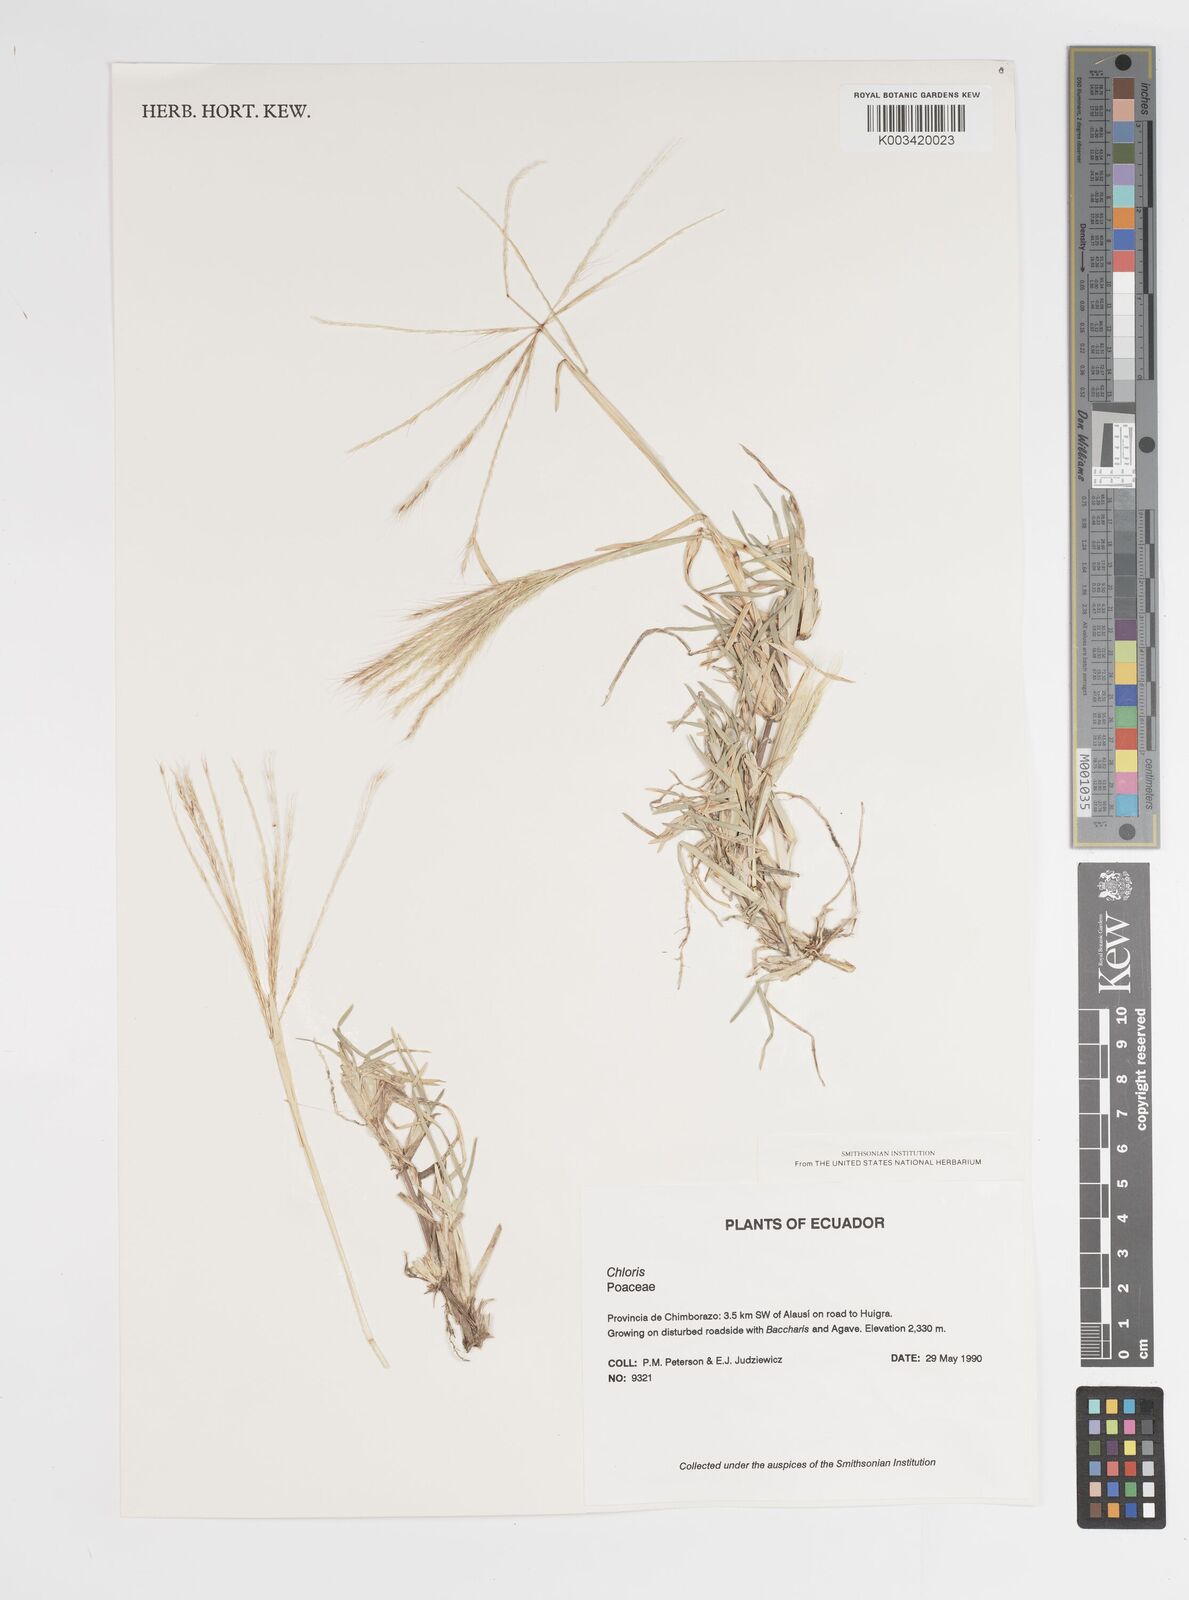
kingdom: Plantae
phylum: Tracheophyta
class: Liliopsida
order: Poales
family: Poaceae
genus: Chloris
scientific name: Chloris halophila
